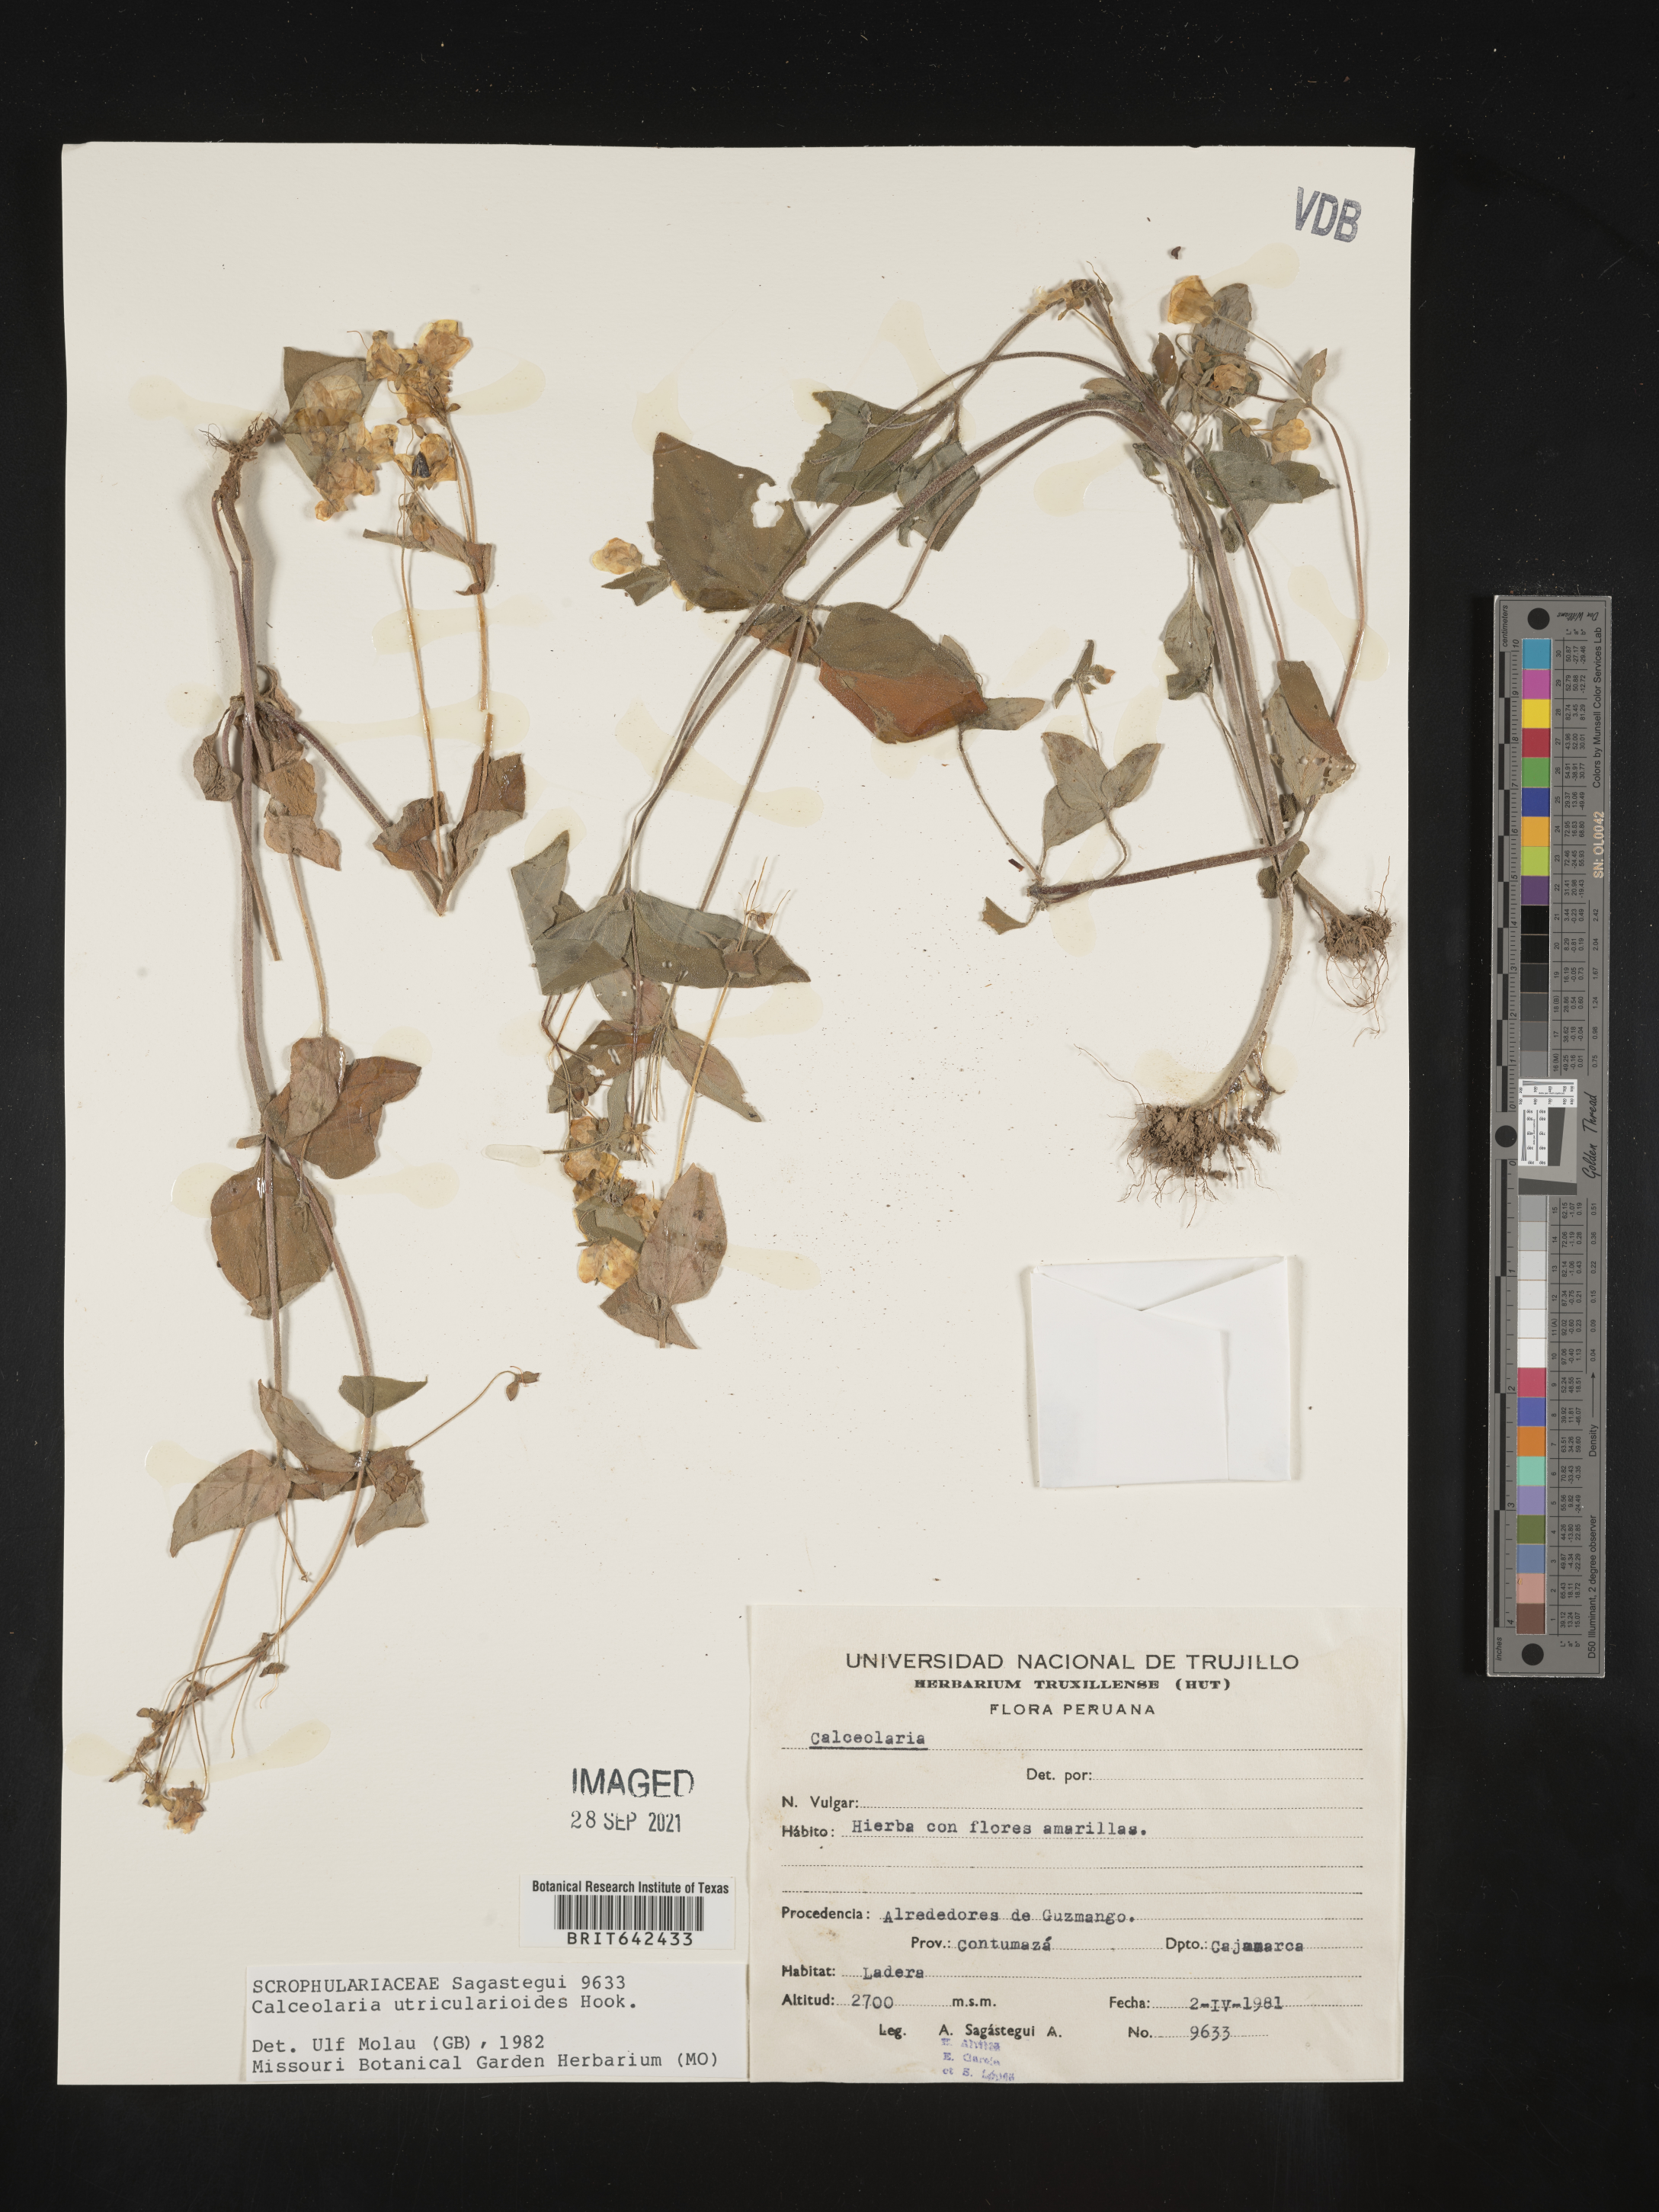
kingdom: Plantae
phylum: Tracheophyta
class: Magnoliopsida
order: Lamiales
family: Calceolariaceae
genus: Calceolaria
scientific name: Calceolaria utricularioides
